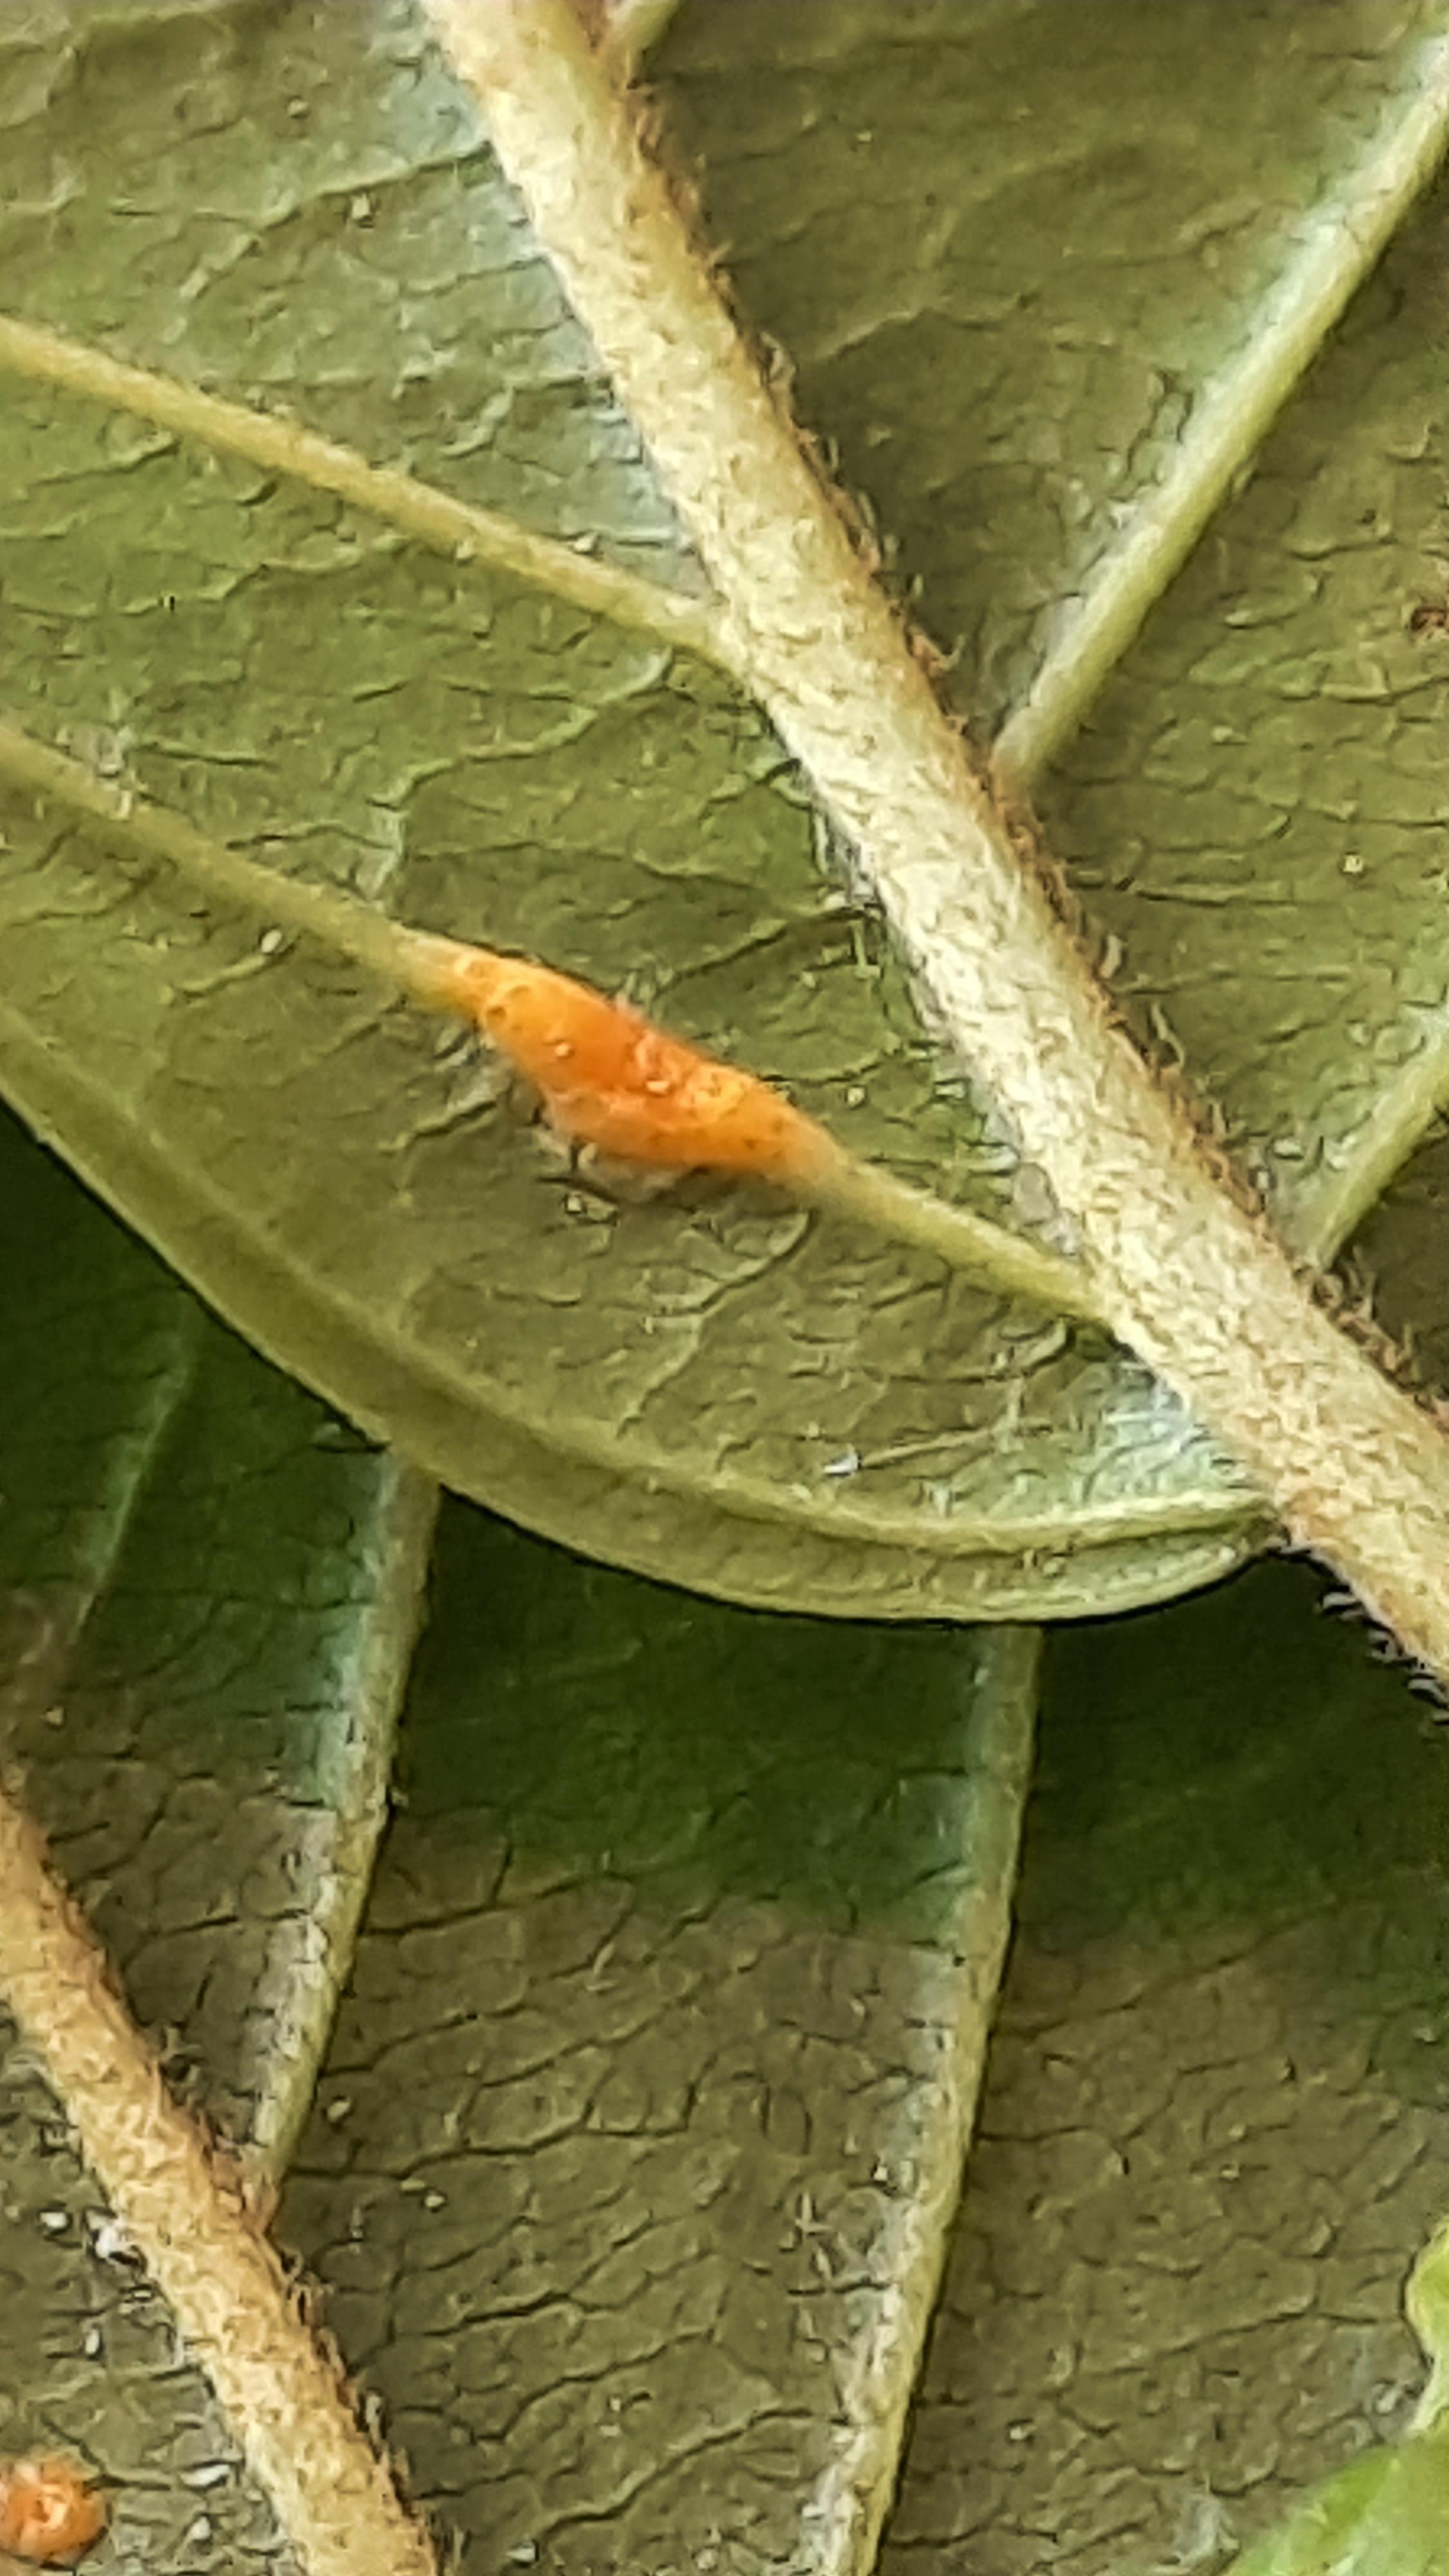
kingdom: Fungi
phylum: Basidiomycota
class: Pucciniomycetes
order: Pucciniales
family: Pucciniaceae
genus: Puccinia
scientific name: Puccinia coronata
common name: Crown rust
